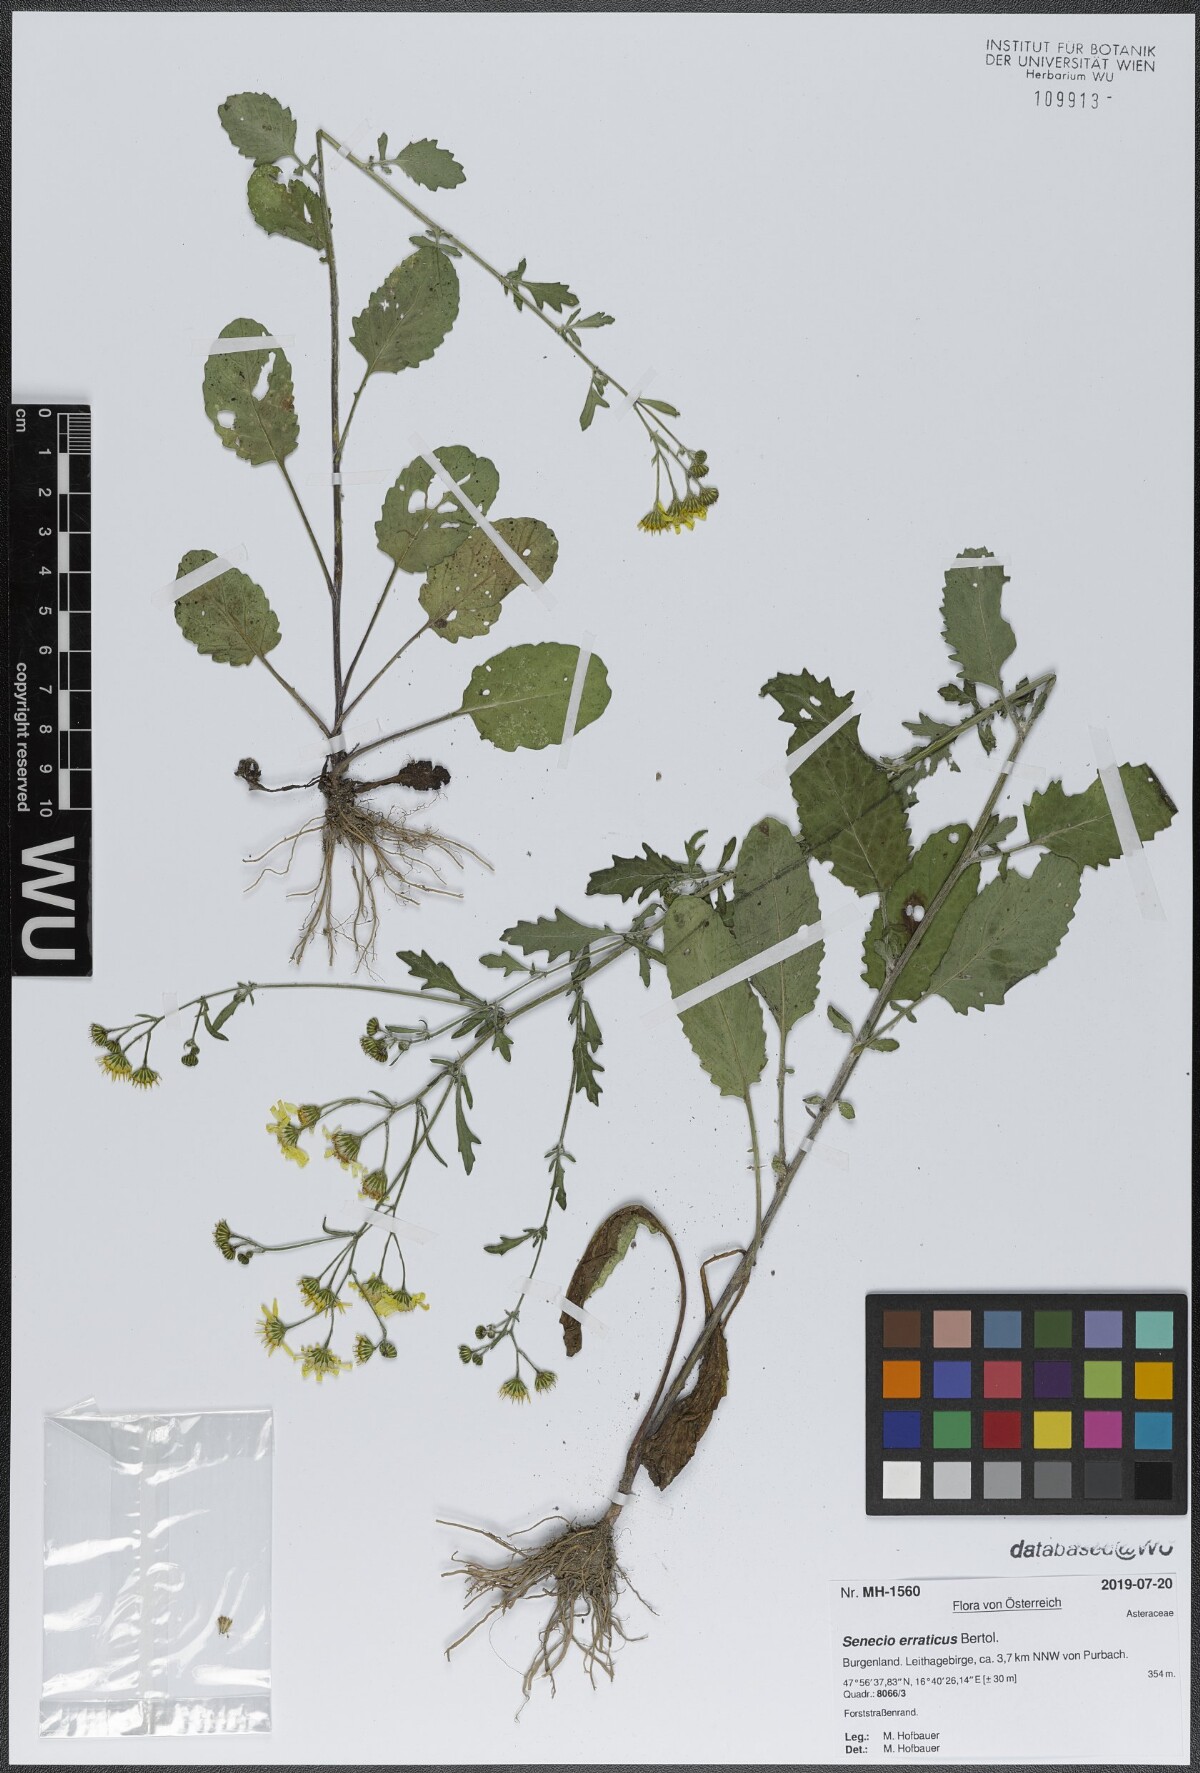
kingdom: Plantae
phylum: Tracheophyta
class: Magnoliopsida
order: Asterales
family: Asteraceae
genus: Jacobaea
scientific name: Jacobaea erratica
